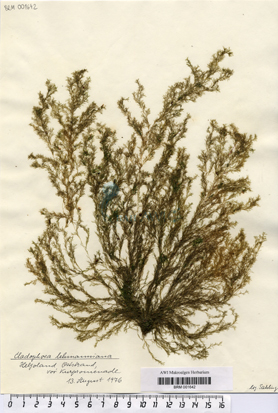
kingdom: Plantae
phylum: Chlorophyta
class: Ulvophyceae
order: Cladophorales
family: Cladophoraceae
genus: Cladophora
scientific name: Cladophora lehmanniana
